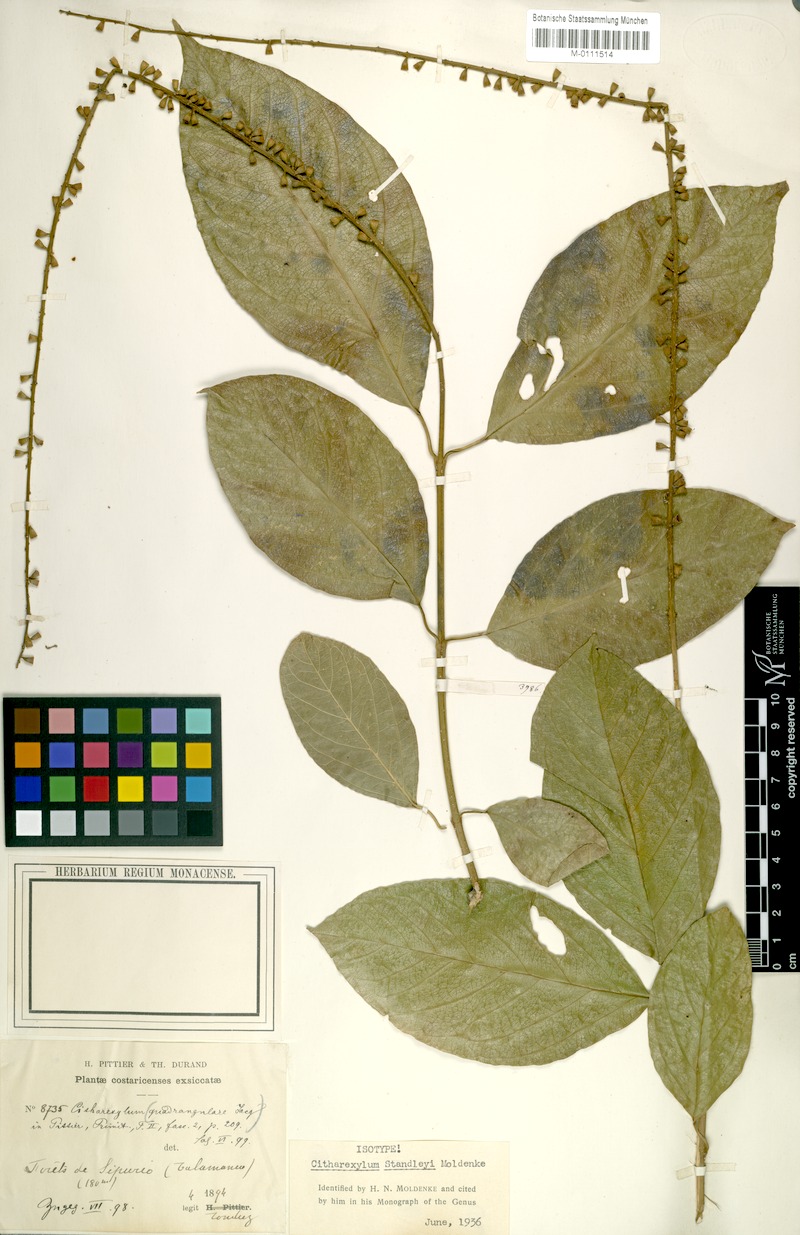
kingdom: Plantae
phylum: Tracheophyta
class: Magnoliopsida
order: Lamiales
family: Verbenaceae
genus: Citharexylum
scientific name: Citharexylum costaricense
